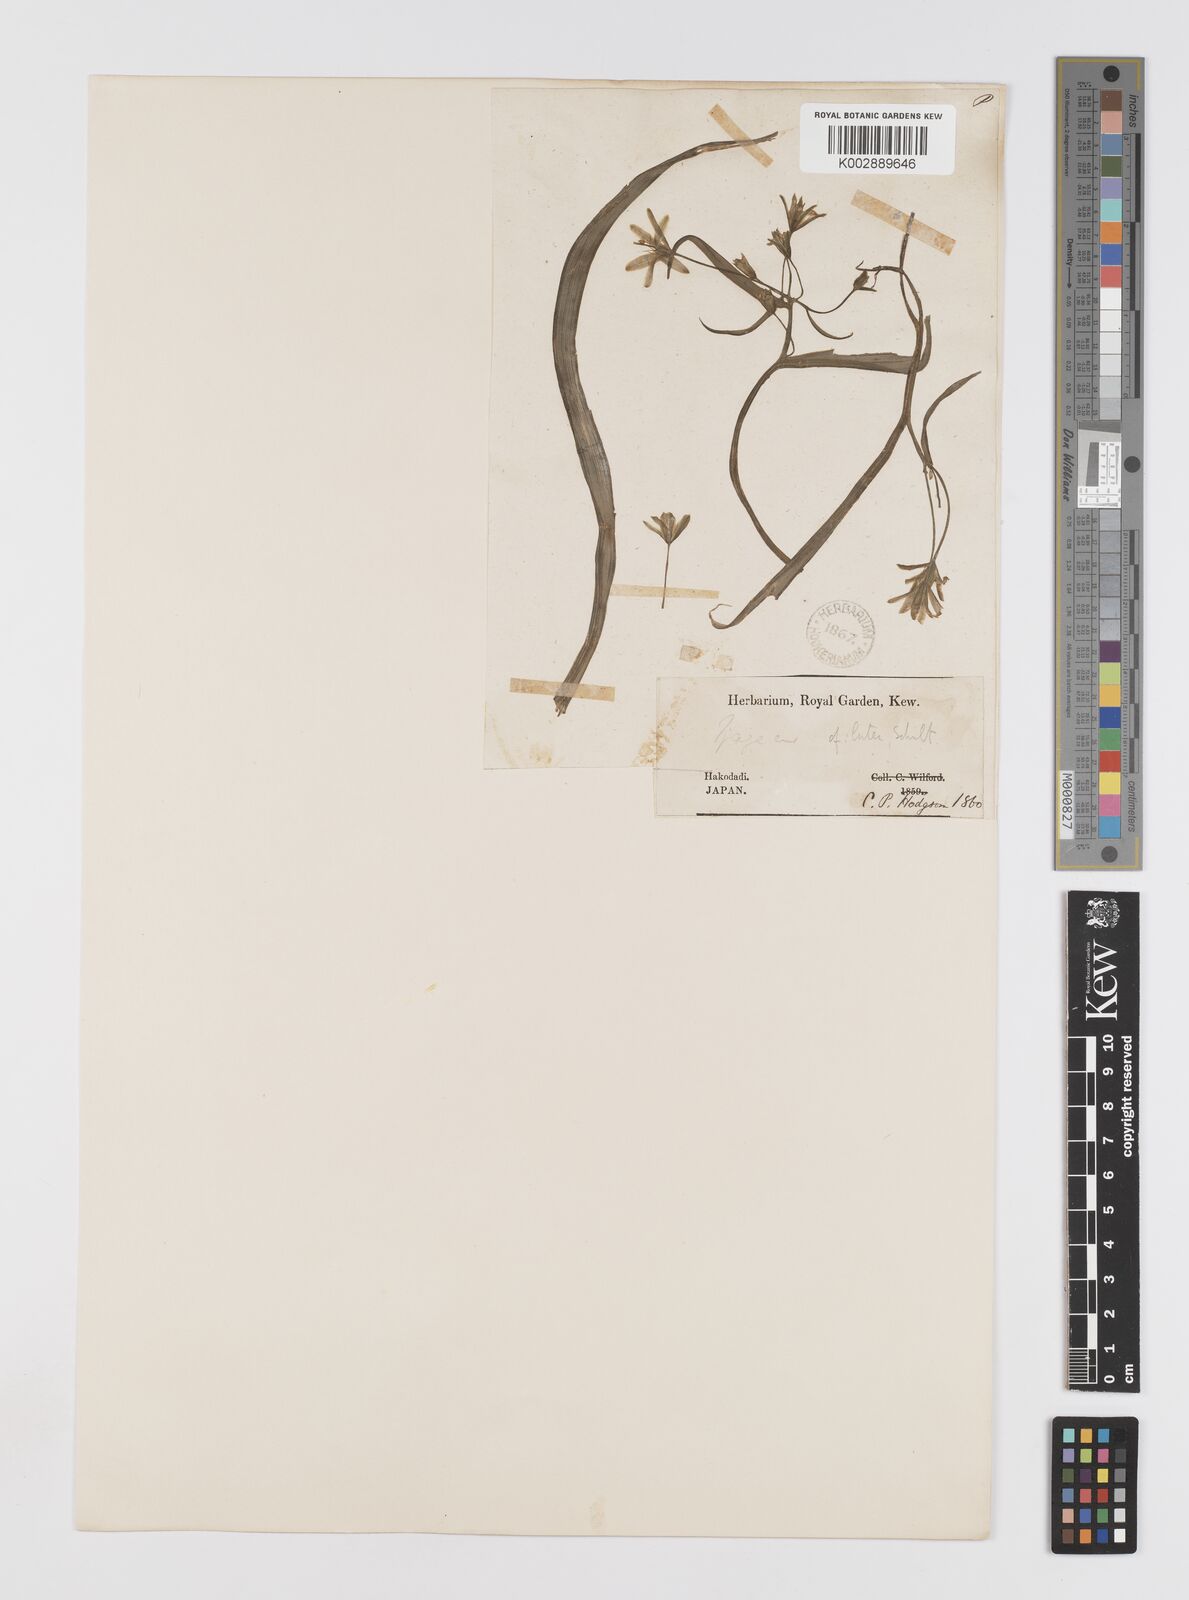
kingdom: Plantae
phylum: Tracheophyta
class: Liliopsida
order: Liliales
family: Liliaceae
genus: Gagea
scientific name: Gagea lutea
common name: Yellow star-of-bethlehem
